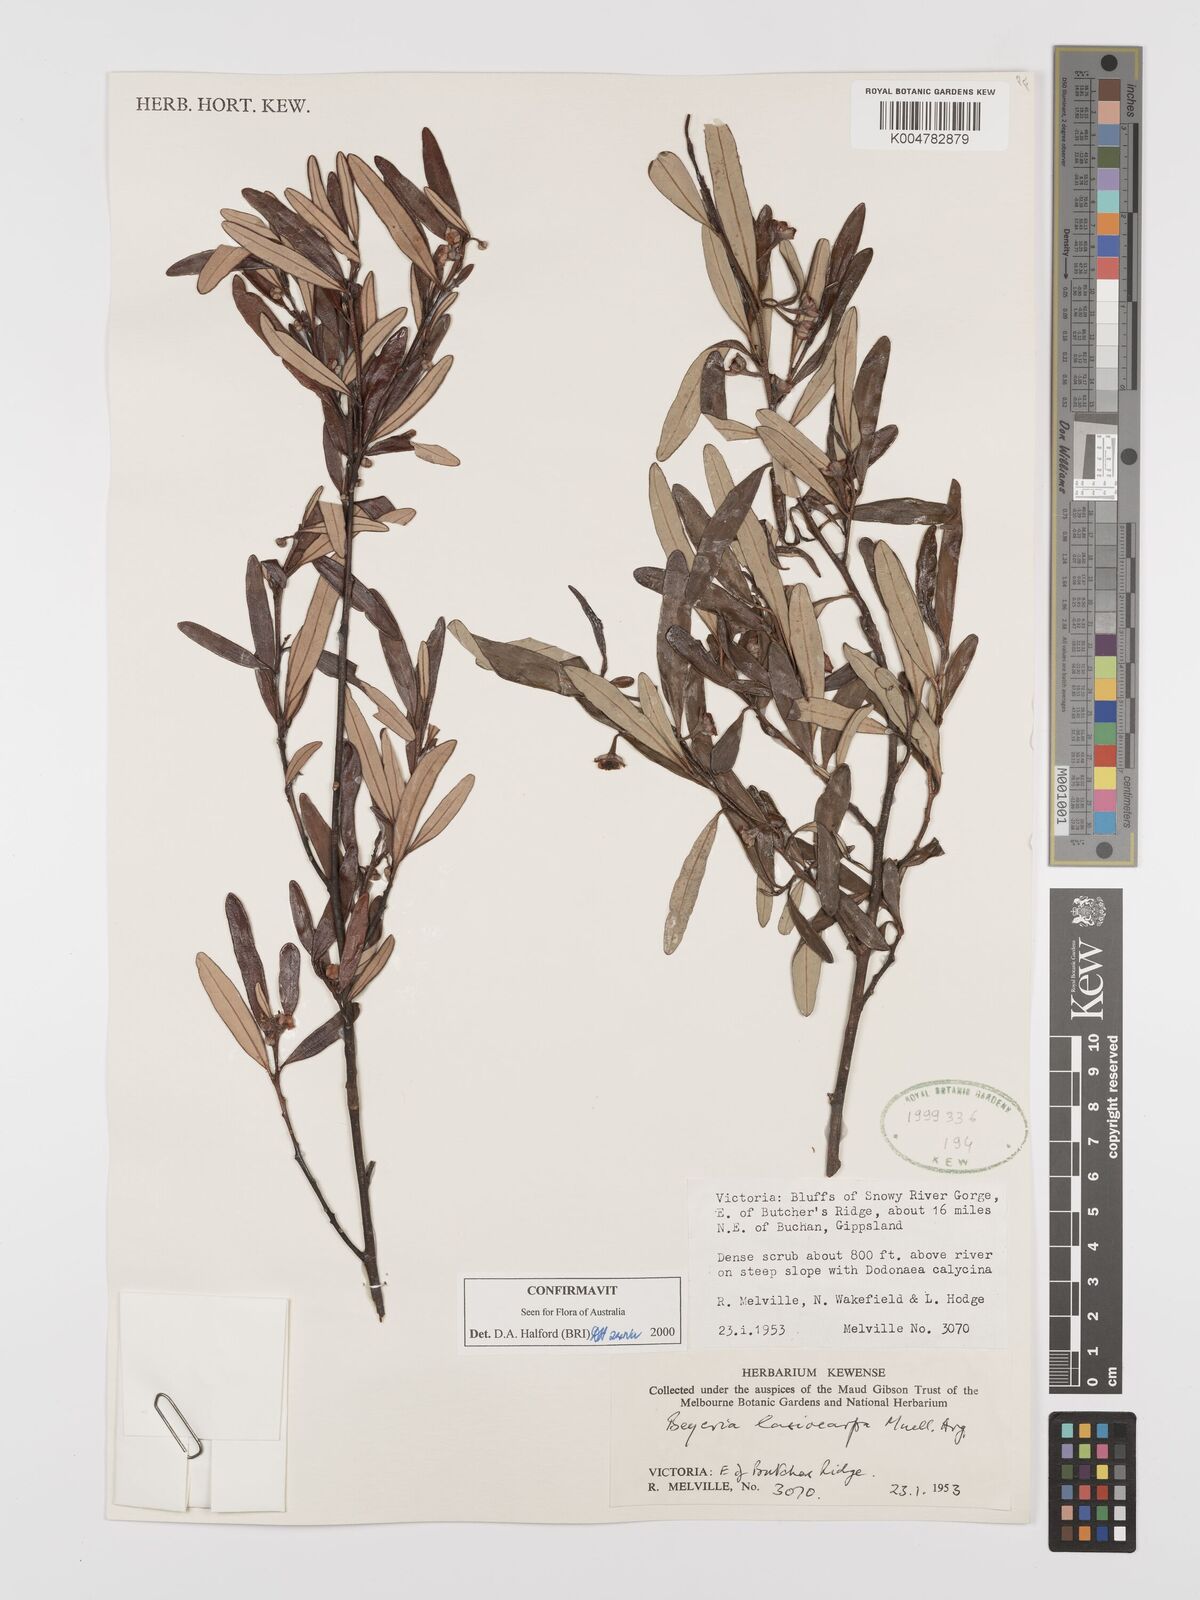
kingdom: Plantae
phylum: Tracheophyta
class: Magnoliopsida
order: Malpighiales
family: Euphorbiaceae
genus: Beyeria
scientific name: Beyeria lasiocarpa
